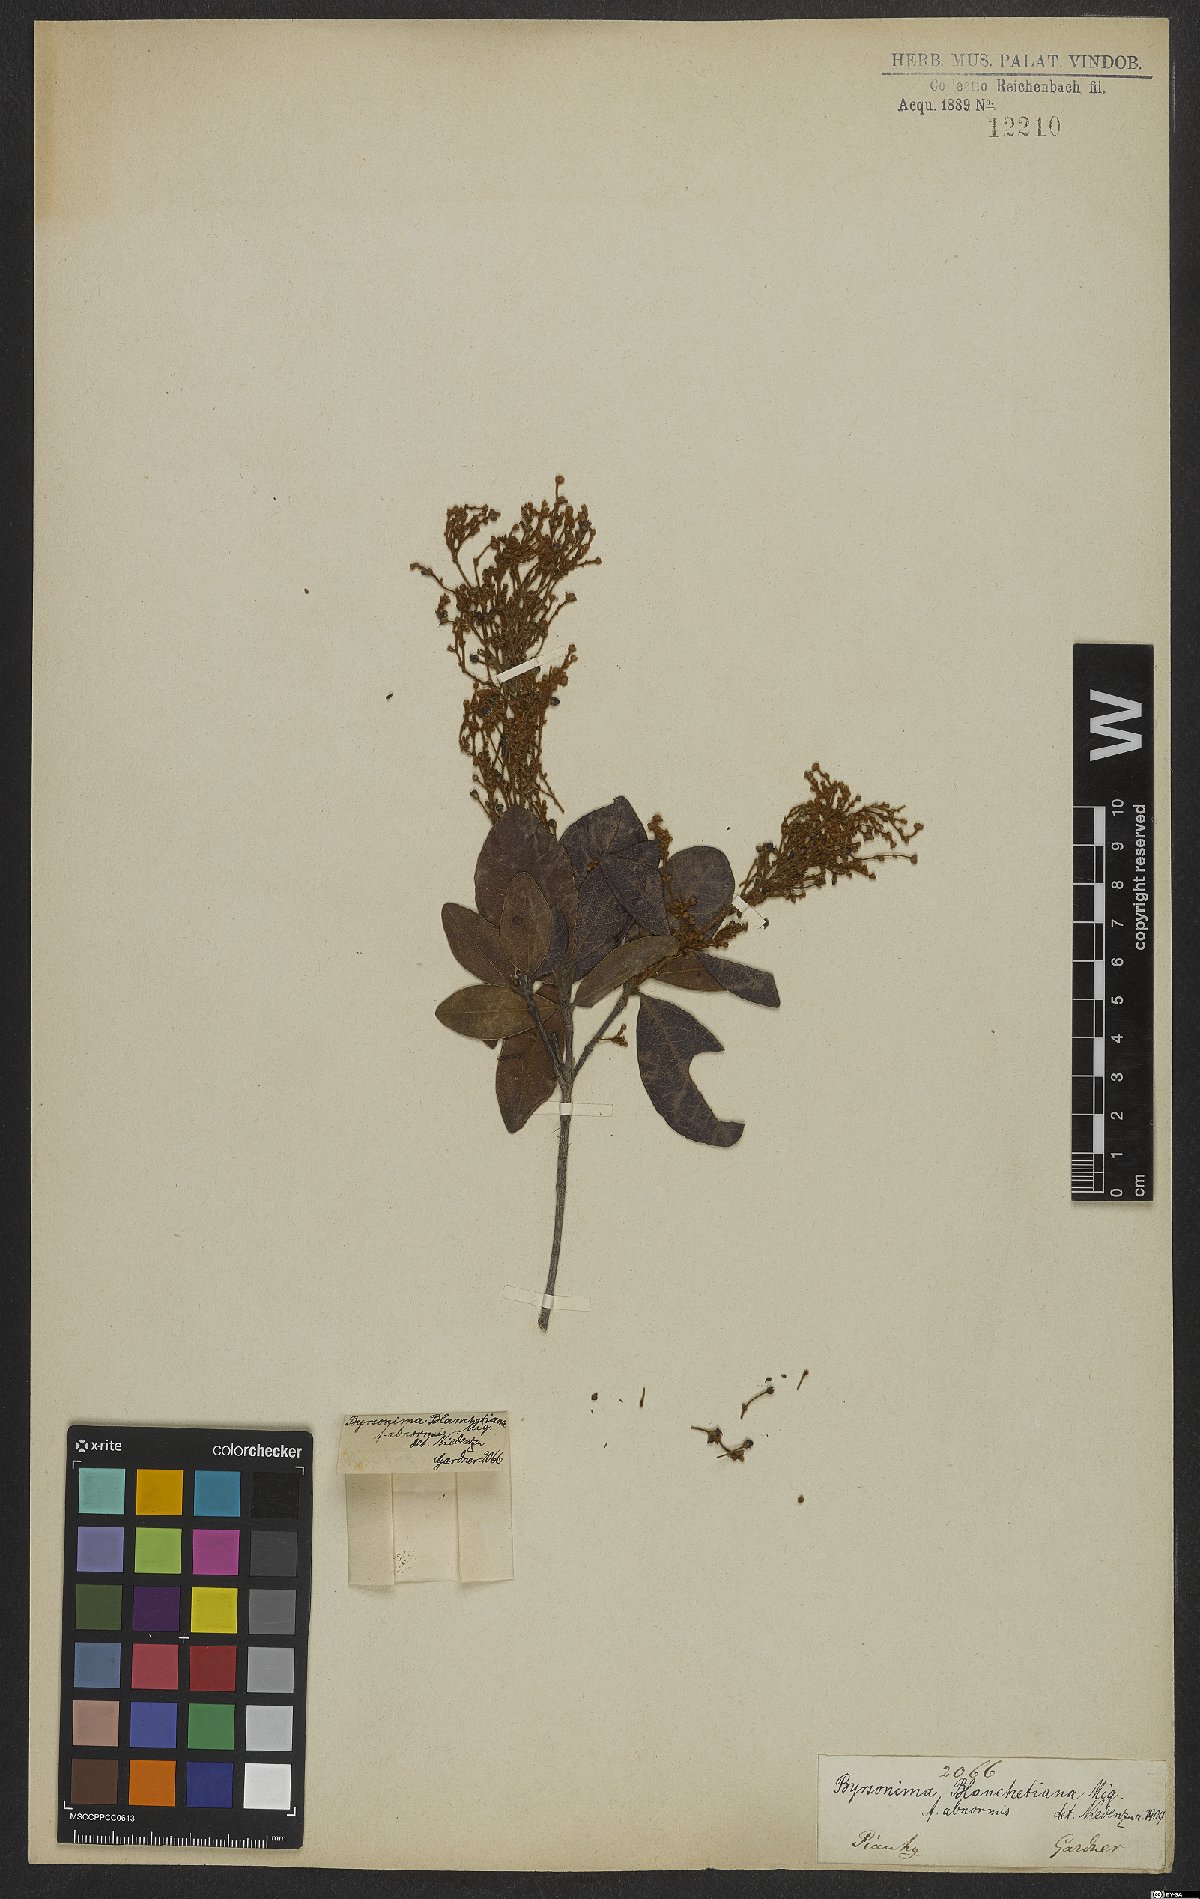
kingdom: Plantae
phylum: Tracheophyta
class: Magnoliopsida
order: Malpighiales
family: Malpighiaceae
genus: Byrsonima
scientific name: Byrsonima bicorniculata
